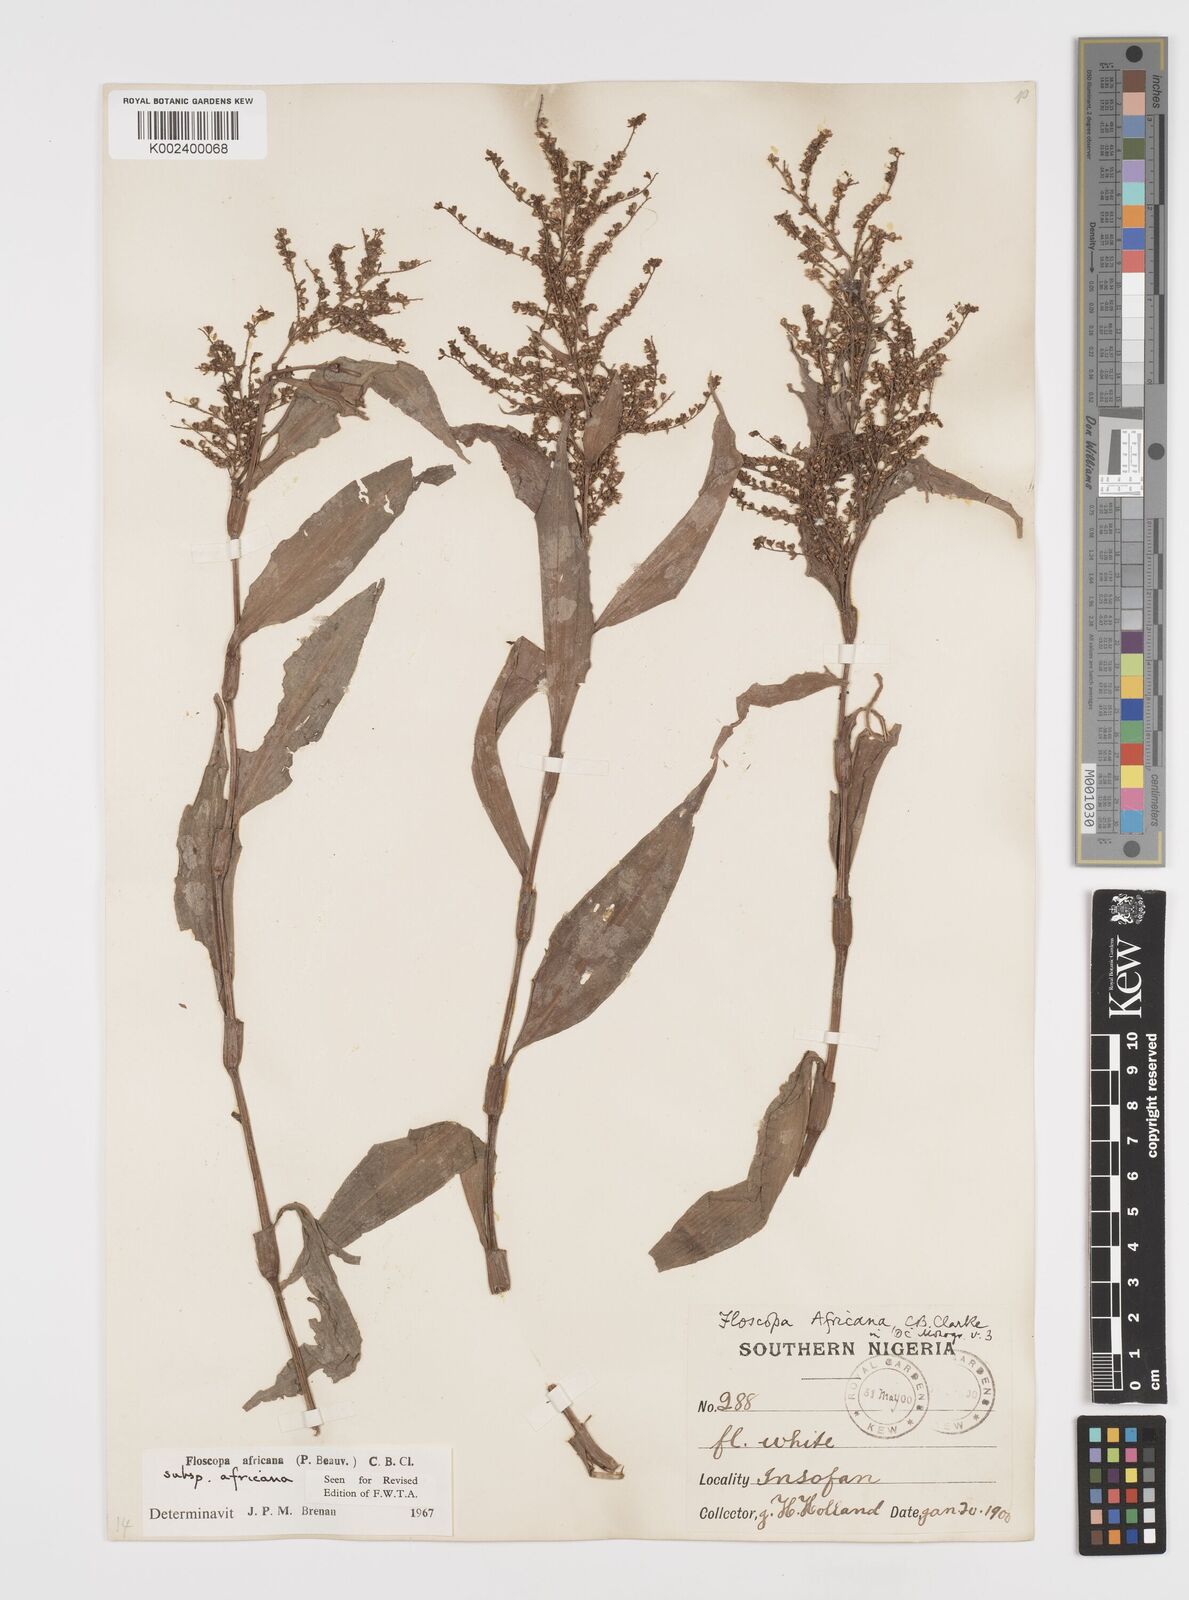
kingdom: Plantae
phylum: Tracheophyta
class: Liliopsida
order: Commelinales
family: Commelinaceae
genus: Floscopa
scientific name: Floscopa africana
